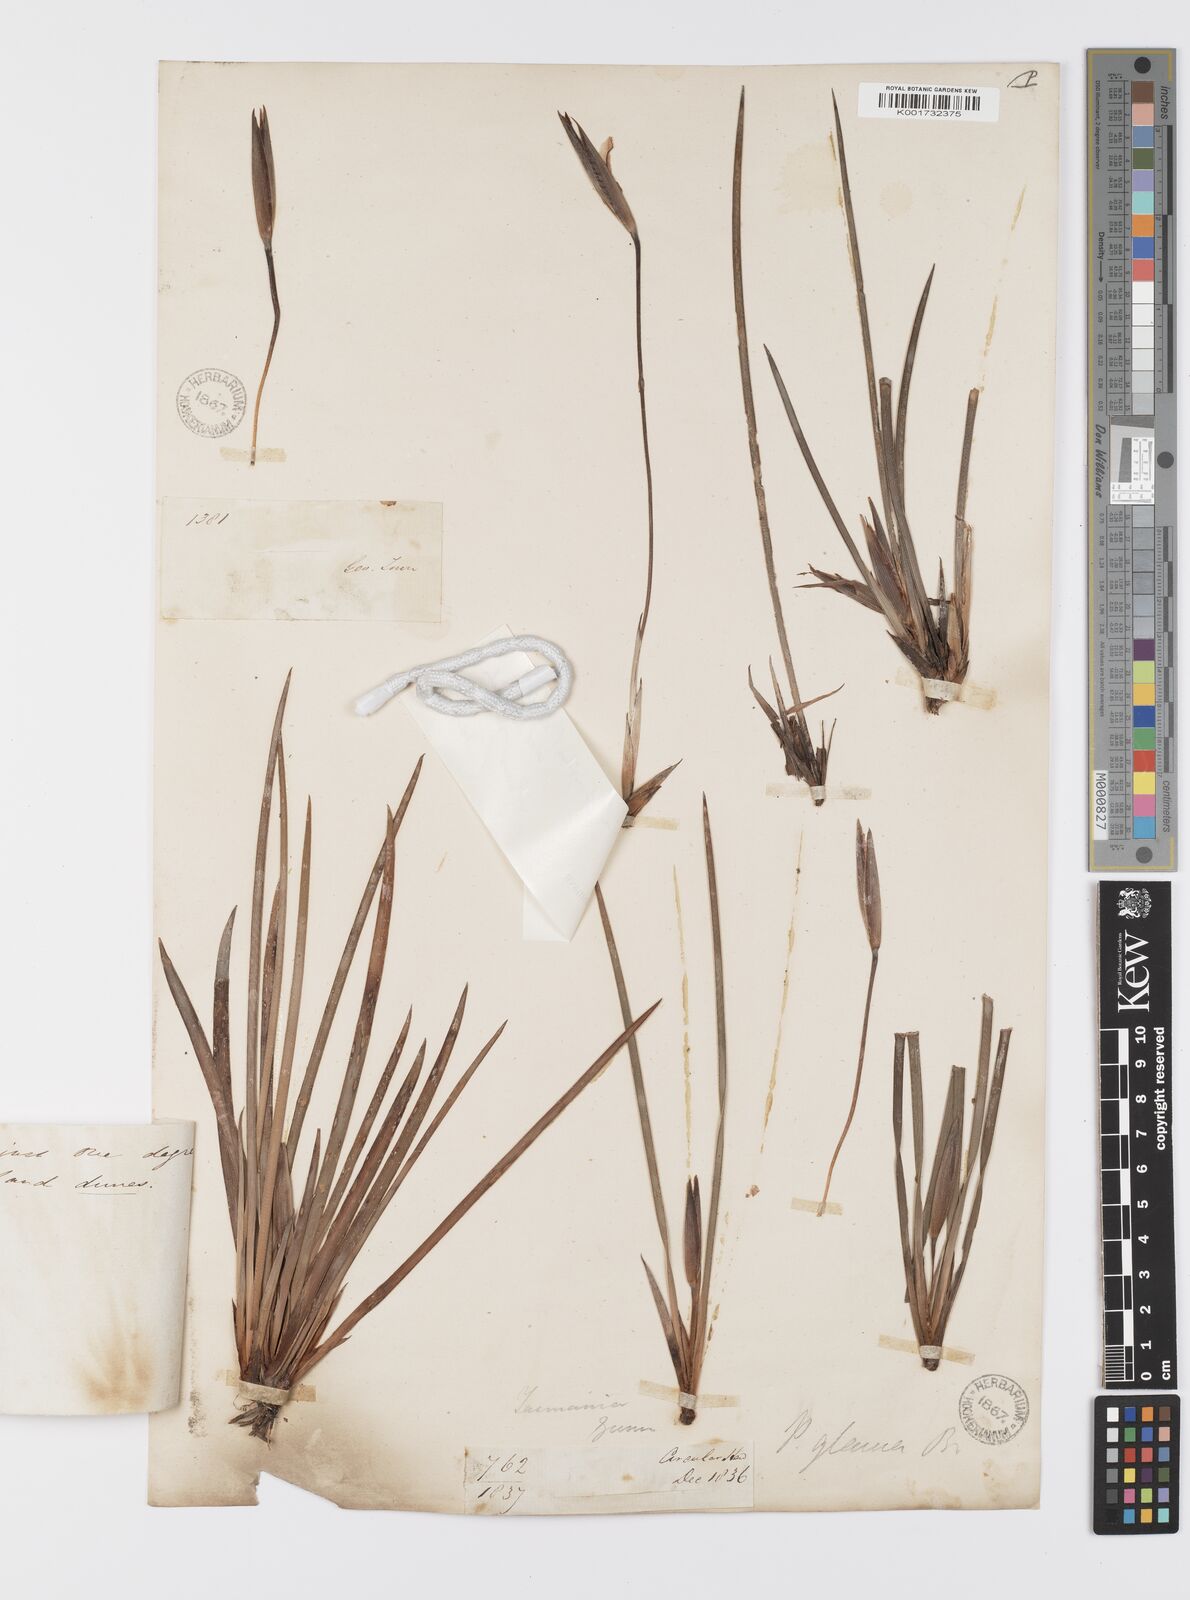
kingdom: Plantae
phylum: Tracheophyta
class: Liliopsida
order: Asparagales
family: Iridaceae
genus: Patersonia
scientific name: Patersonia fragilis
